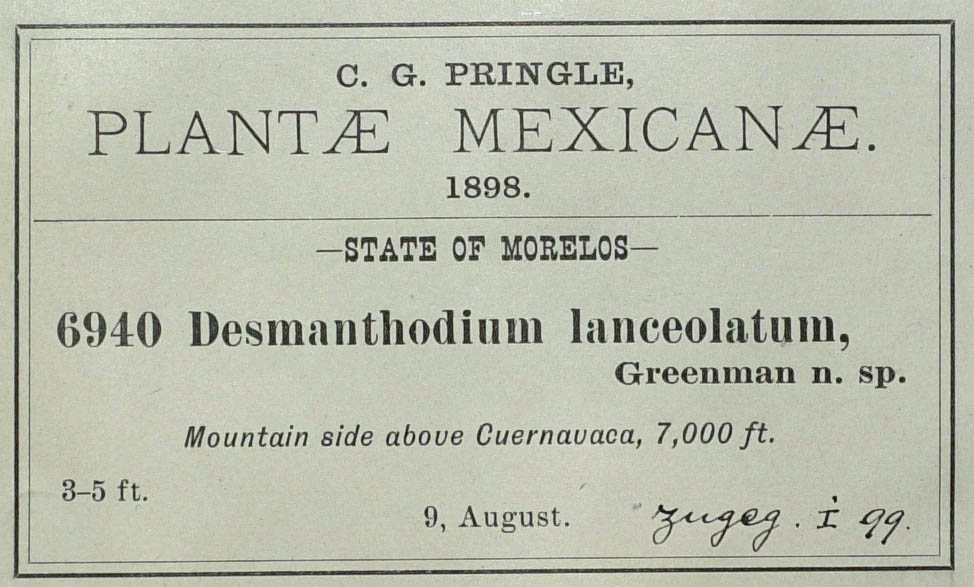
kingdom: Plantae
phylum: Tracheophyta
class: Magnoliopsida
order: Asterales
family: Asteraceae
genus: Desmanthodium
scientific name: Desmanthodium lanceolatum
